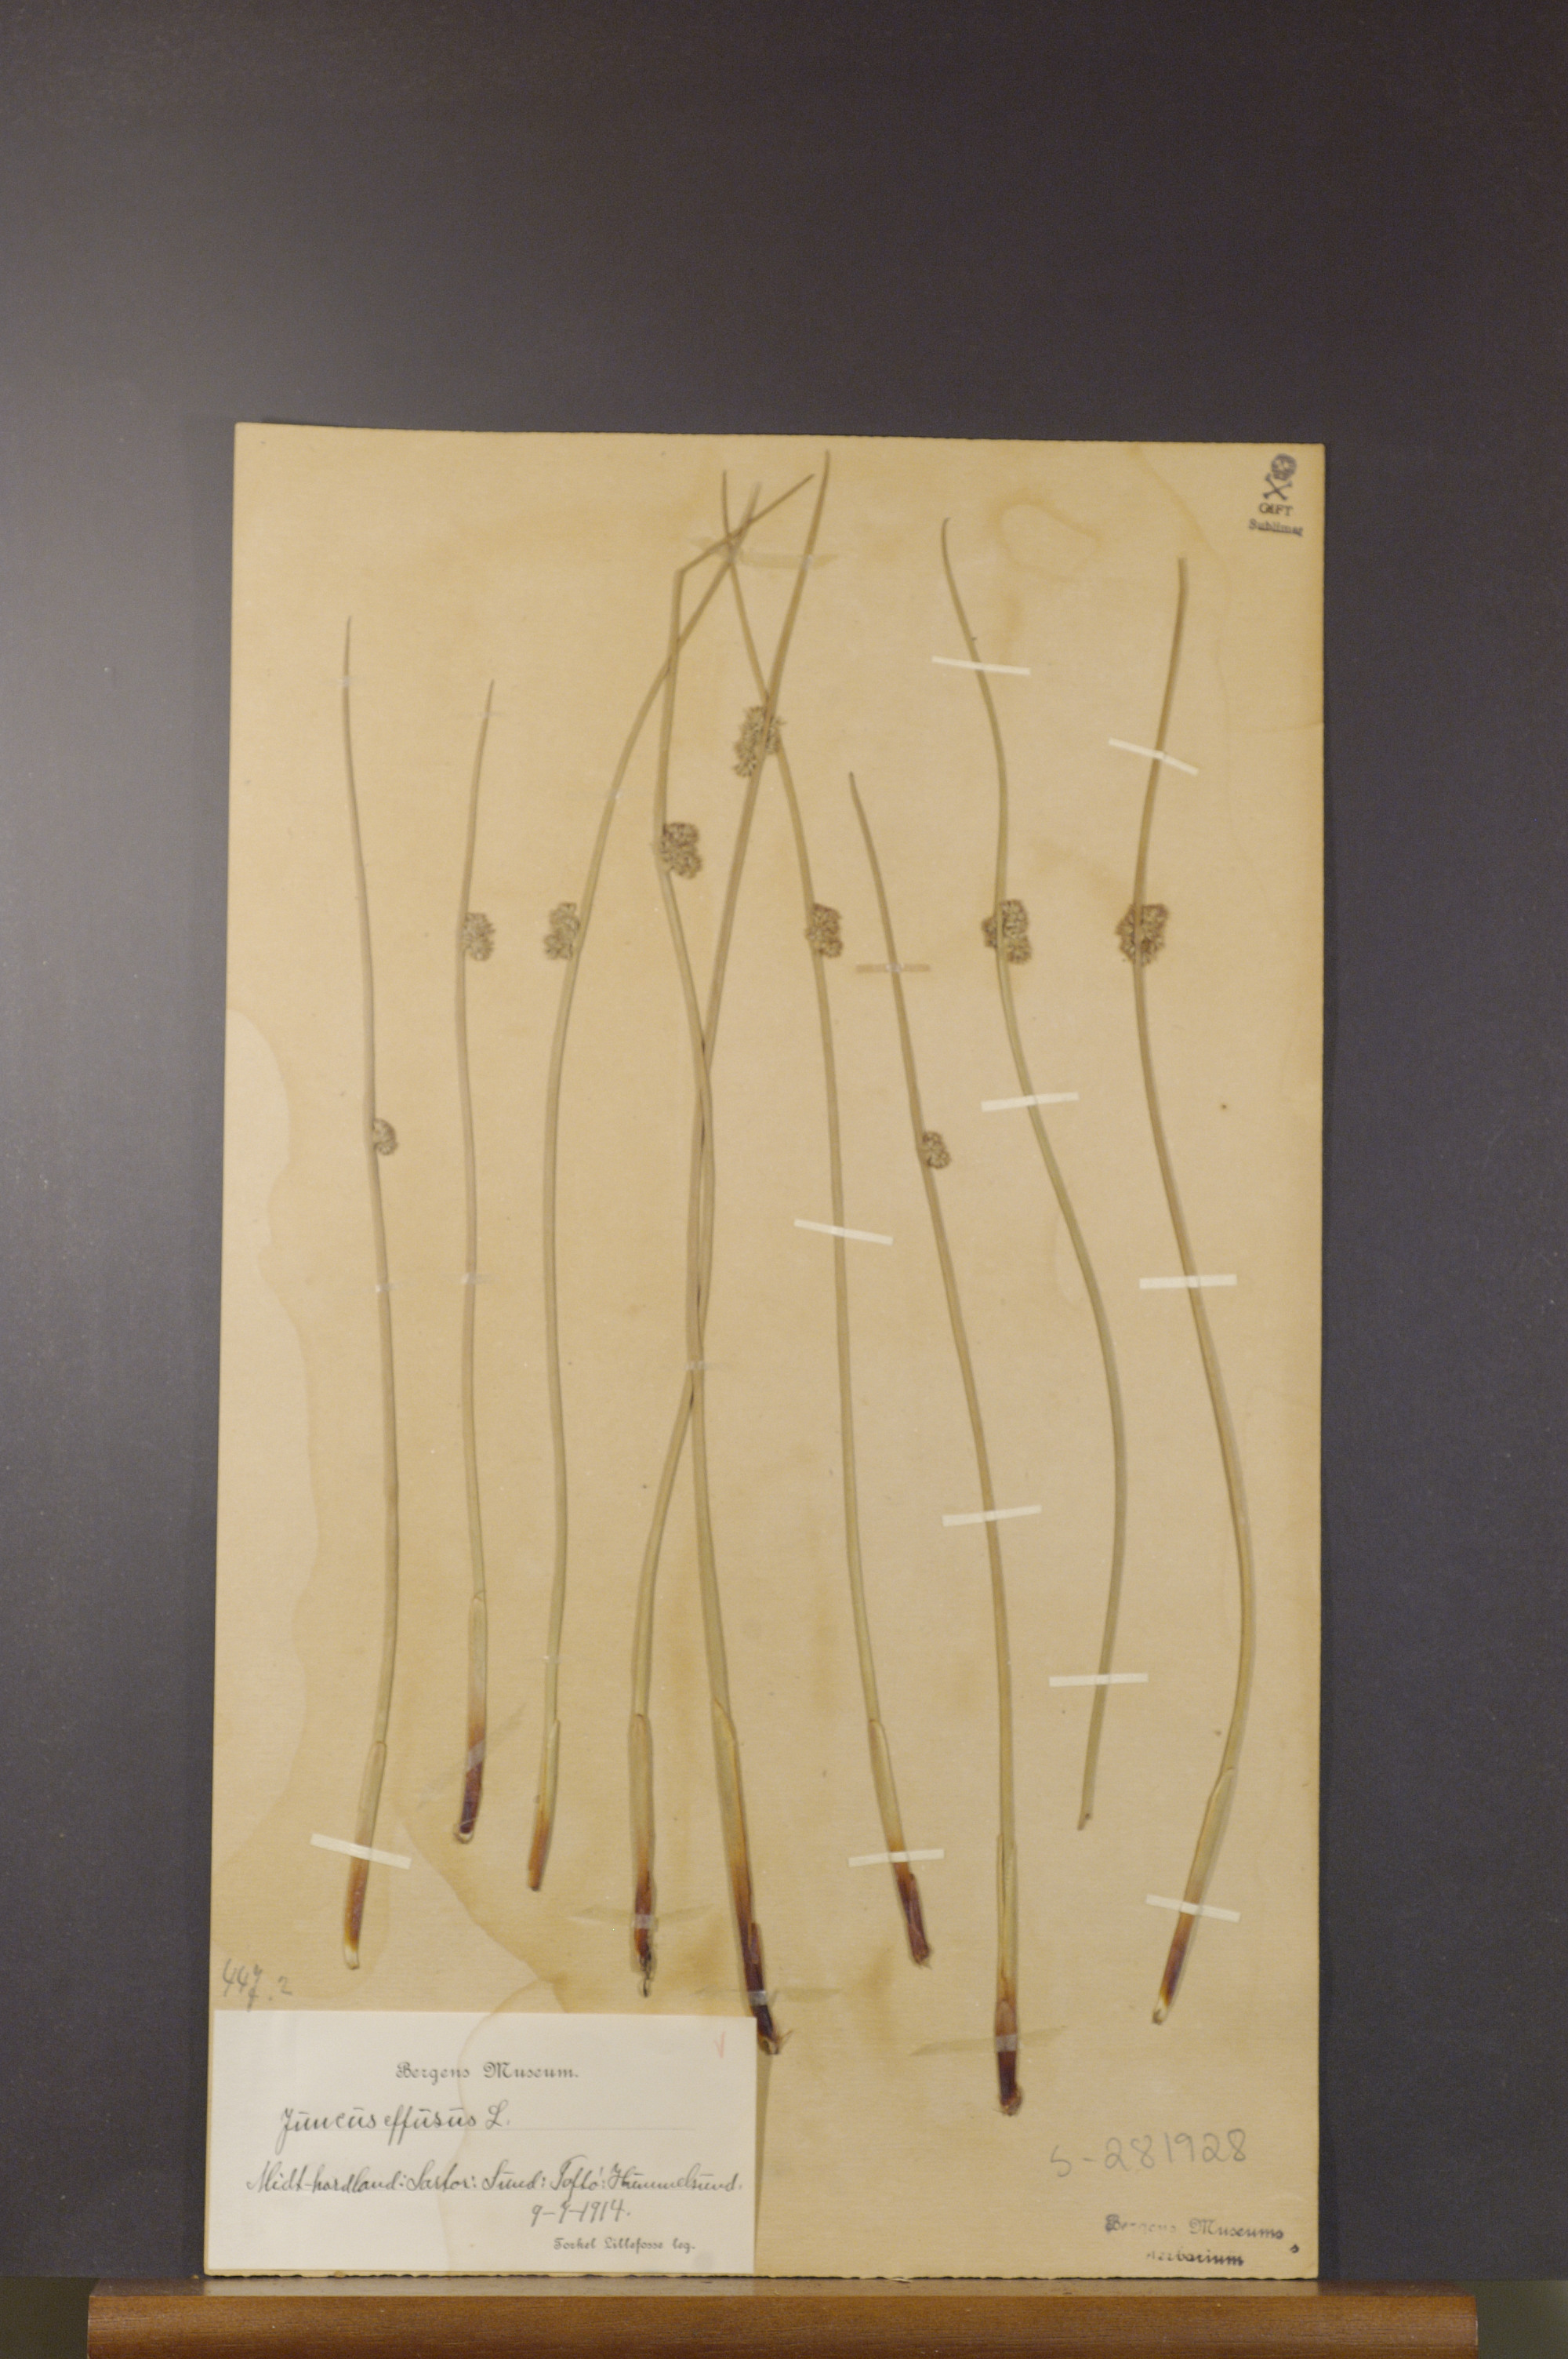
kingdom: Plantae
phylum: Tracheophyta
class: Liliopsida
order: Poales
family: Juncaceae
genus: Juncus
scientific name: Juncus effusus
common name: Soft rush
